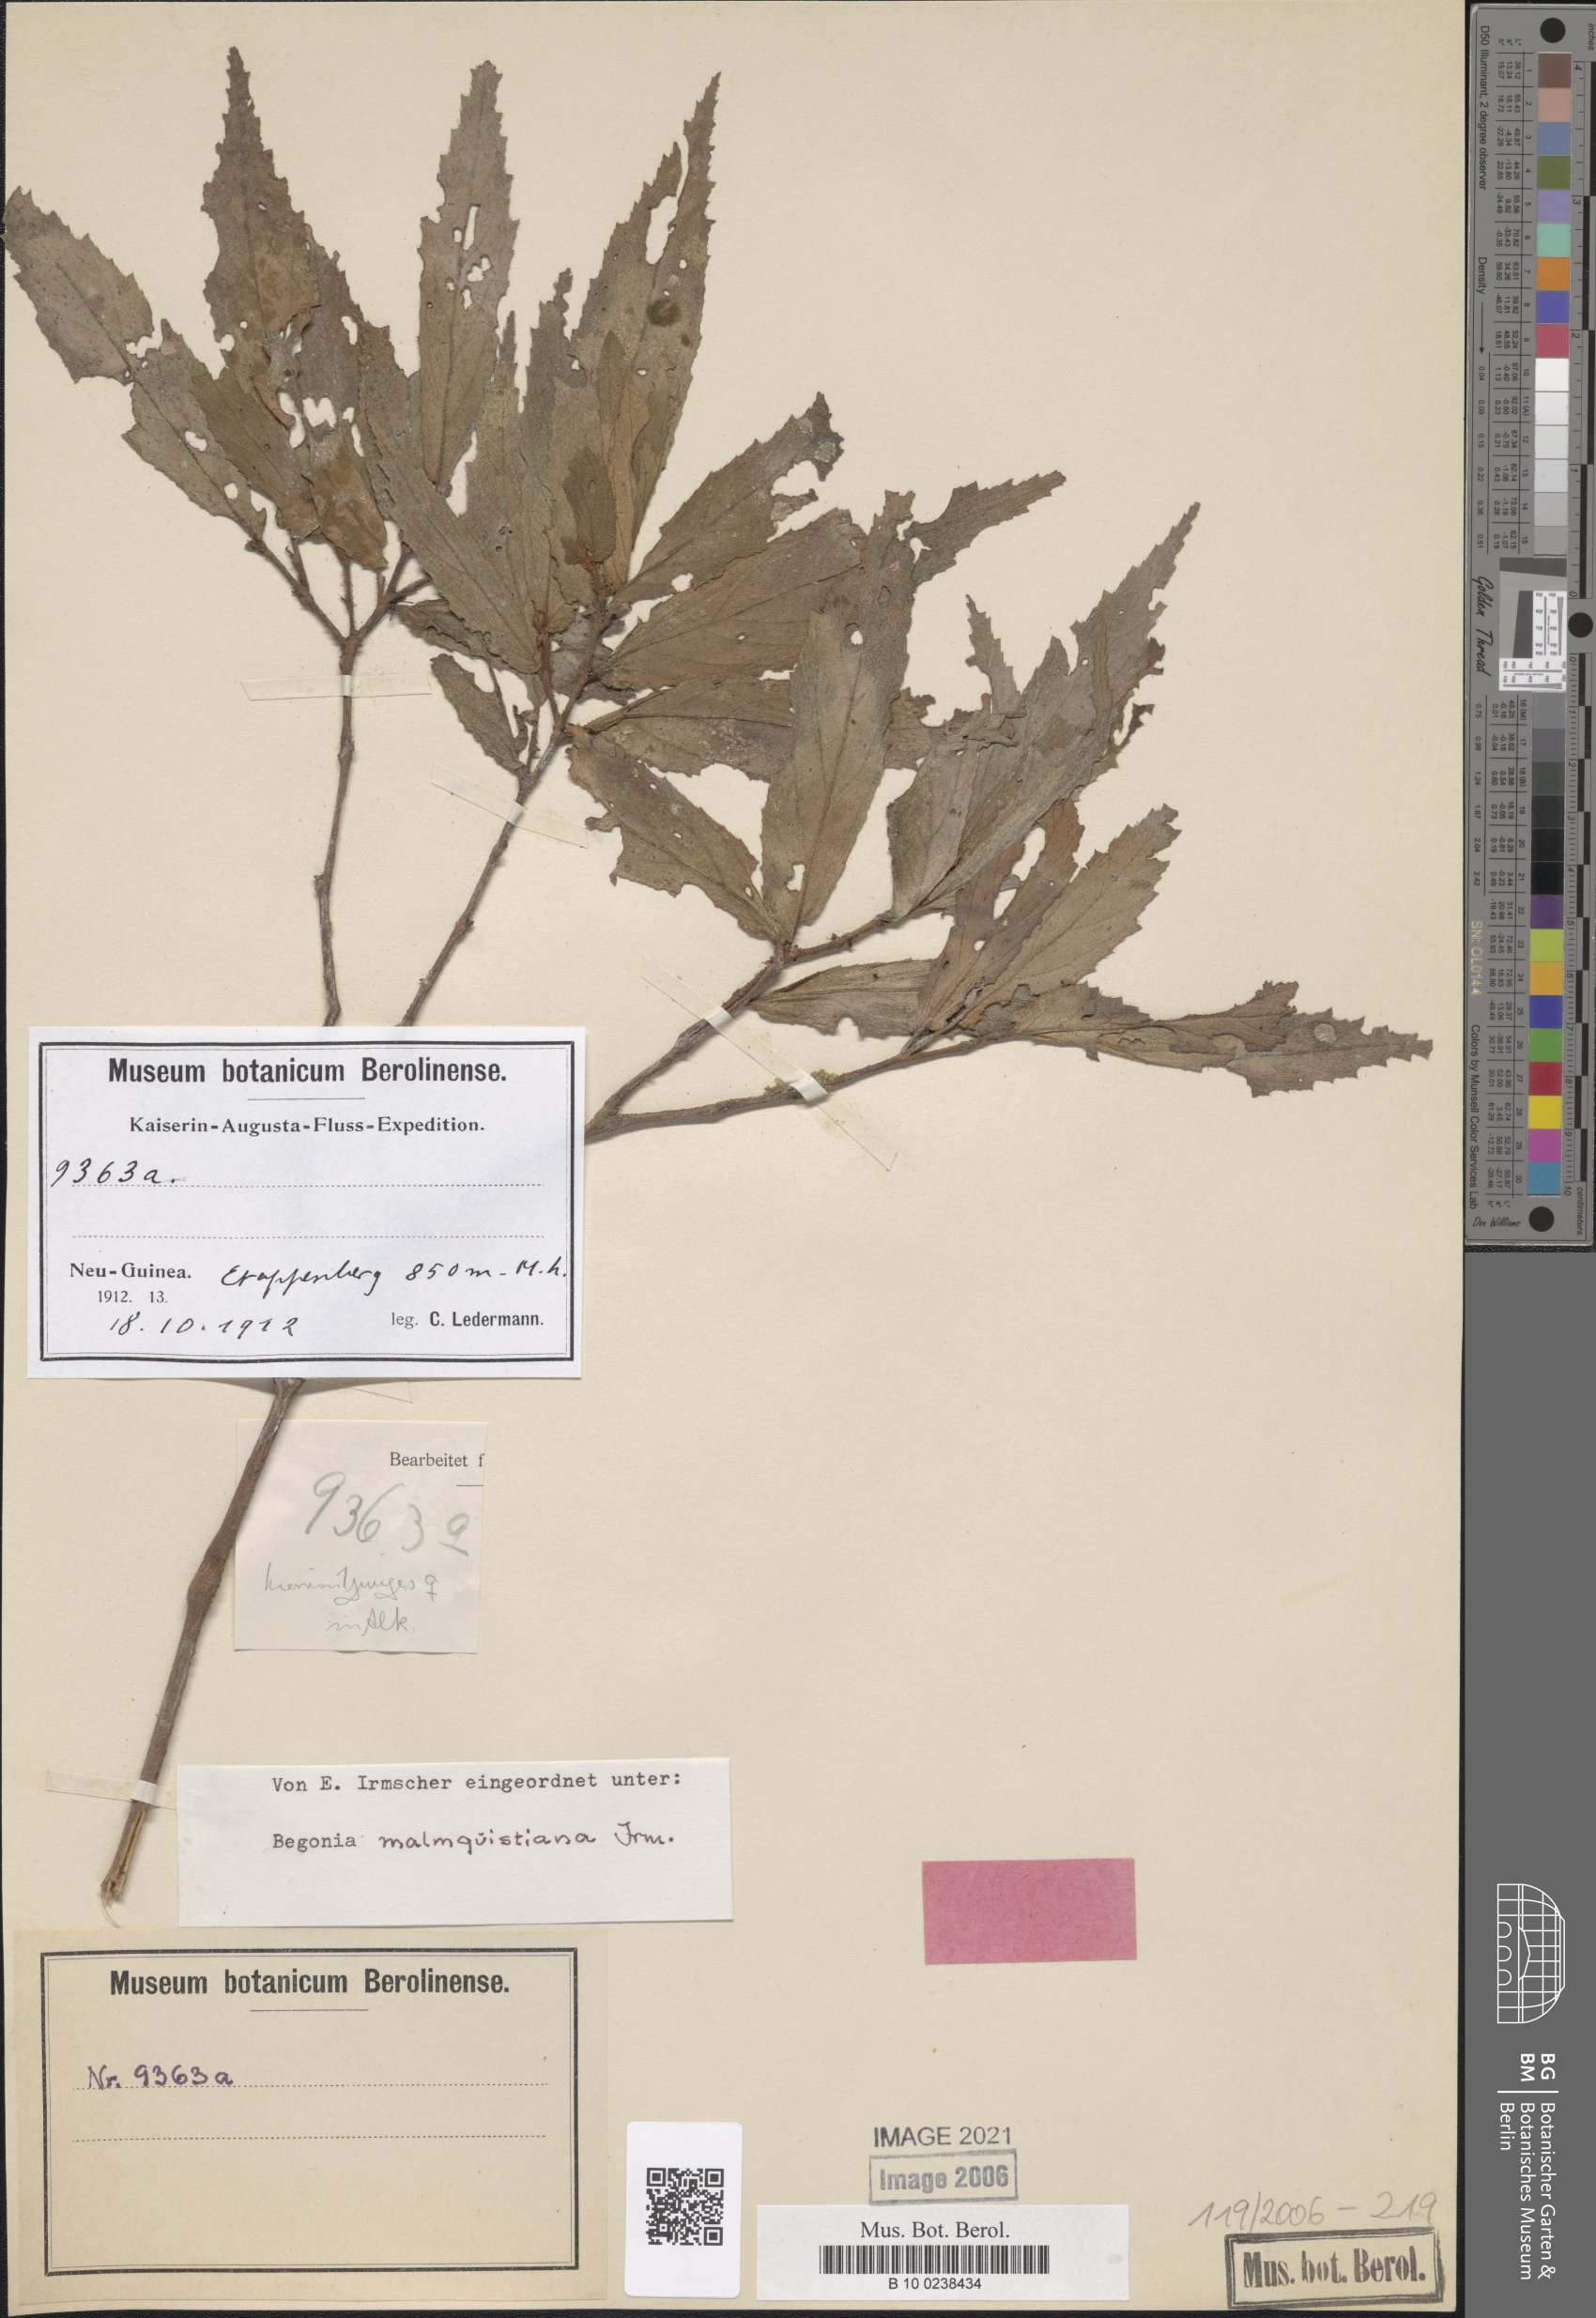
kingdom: Plantae
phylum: Tracheophyta
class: Magnoliopsida
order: Cucurbitales
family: Begoniaceae
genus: Begonia
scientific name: Begonia malmquistiana
